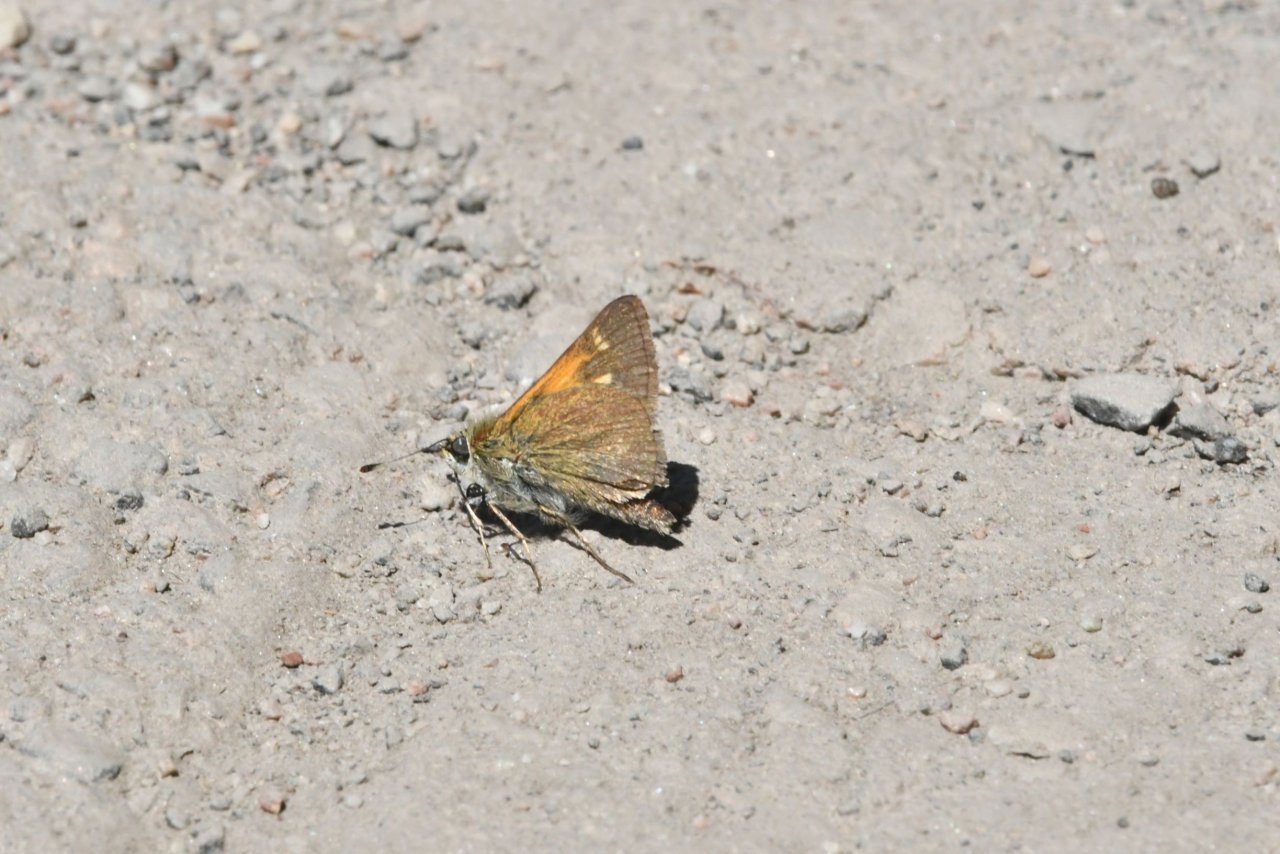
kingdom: Animalia
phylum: Arthropoda
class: Insecta
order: Lepidoptera
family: Hesperiidae
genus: Polites
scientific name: Polites themistocles
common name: Tawny-edged Skipper
